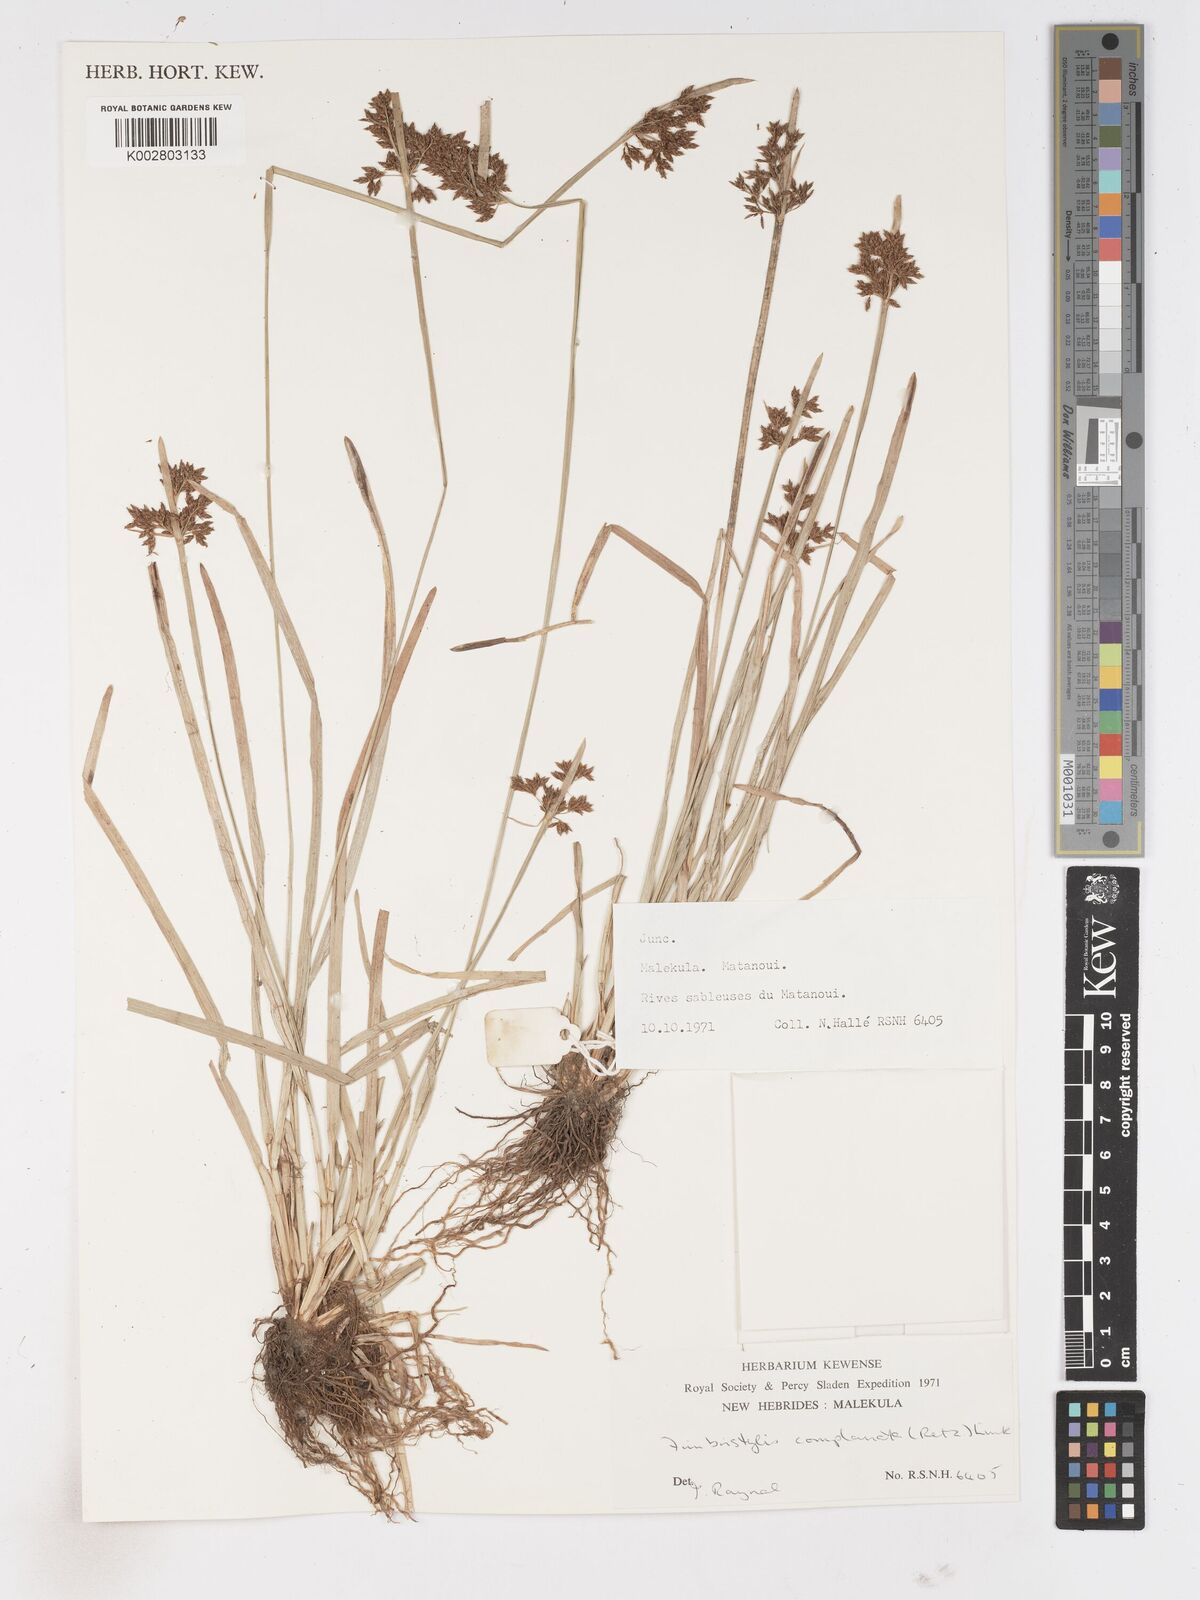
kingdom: Plantae
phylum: Tracheophyta
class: Liliopsida
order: Poales
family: Cyperaceae
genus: Fimbristylis
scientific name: Fimbristylis complanata
